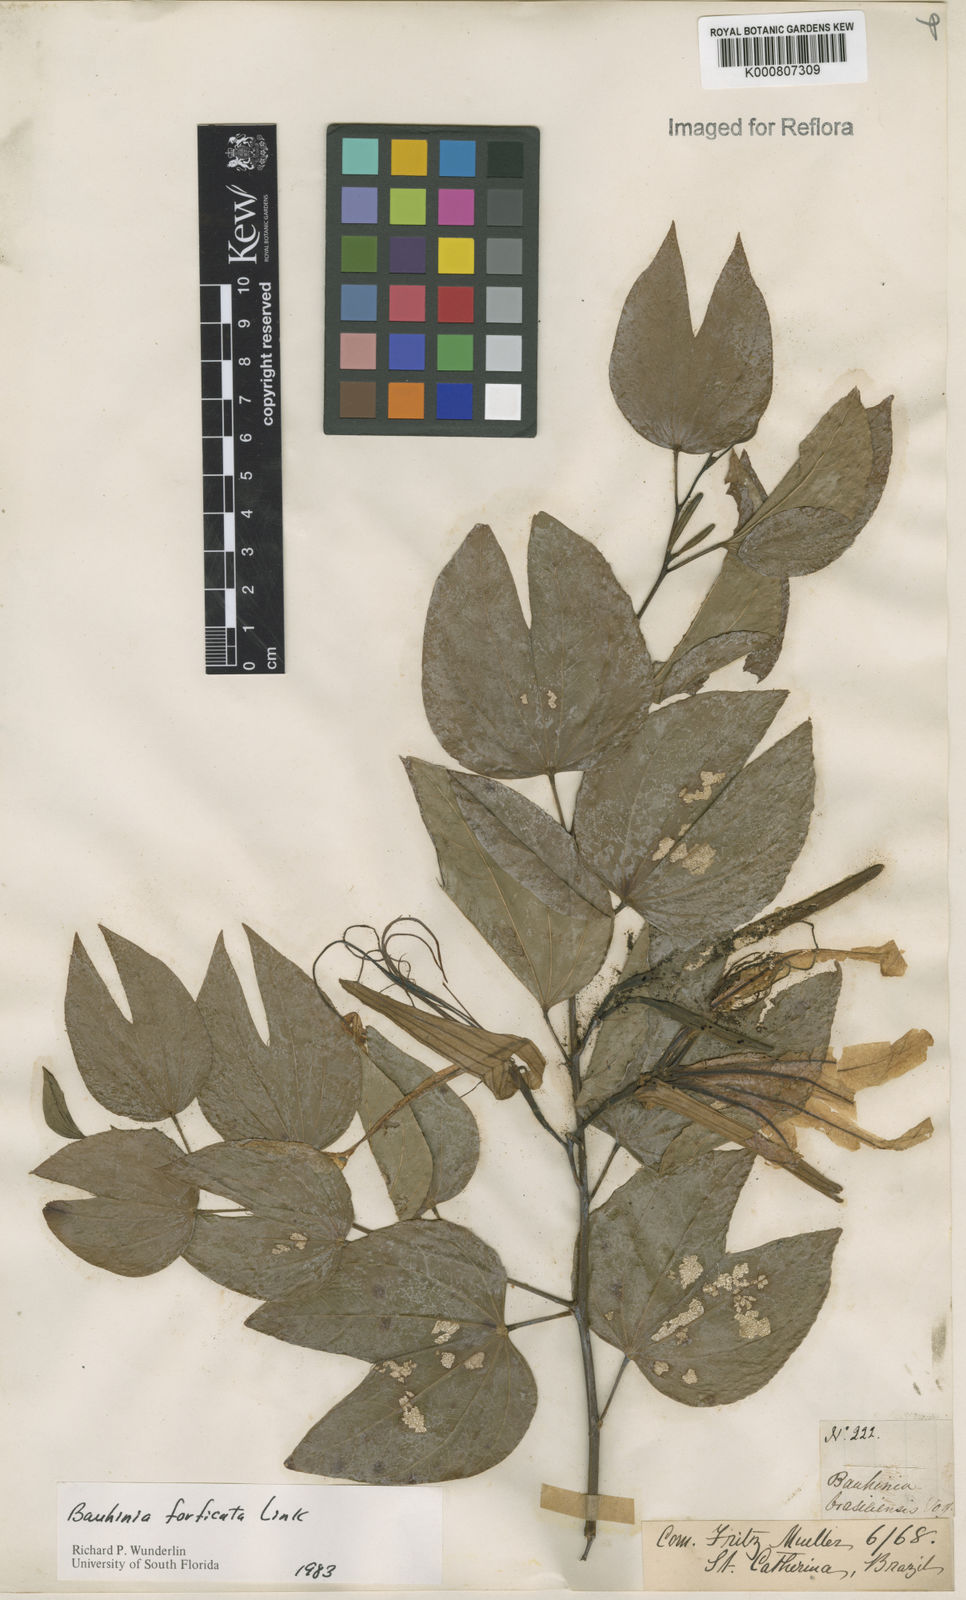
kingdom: Plantae
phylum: Tracheophyta
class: Magnoliopsida
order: Fabales
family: Fabaceae
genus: Bauhinia
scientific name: Bauhinia forficata
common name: Orchid tree
